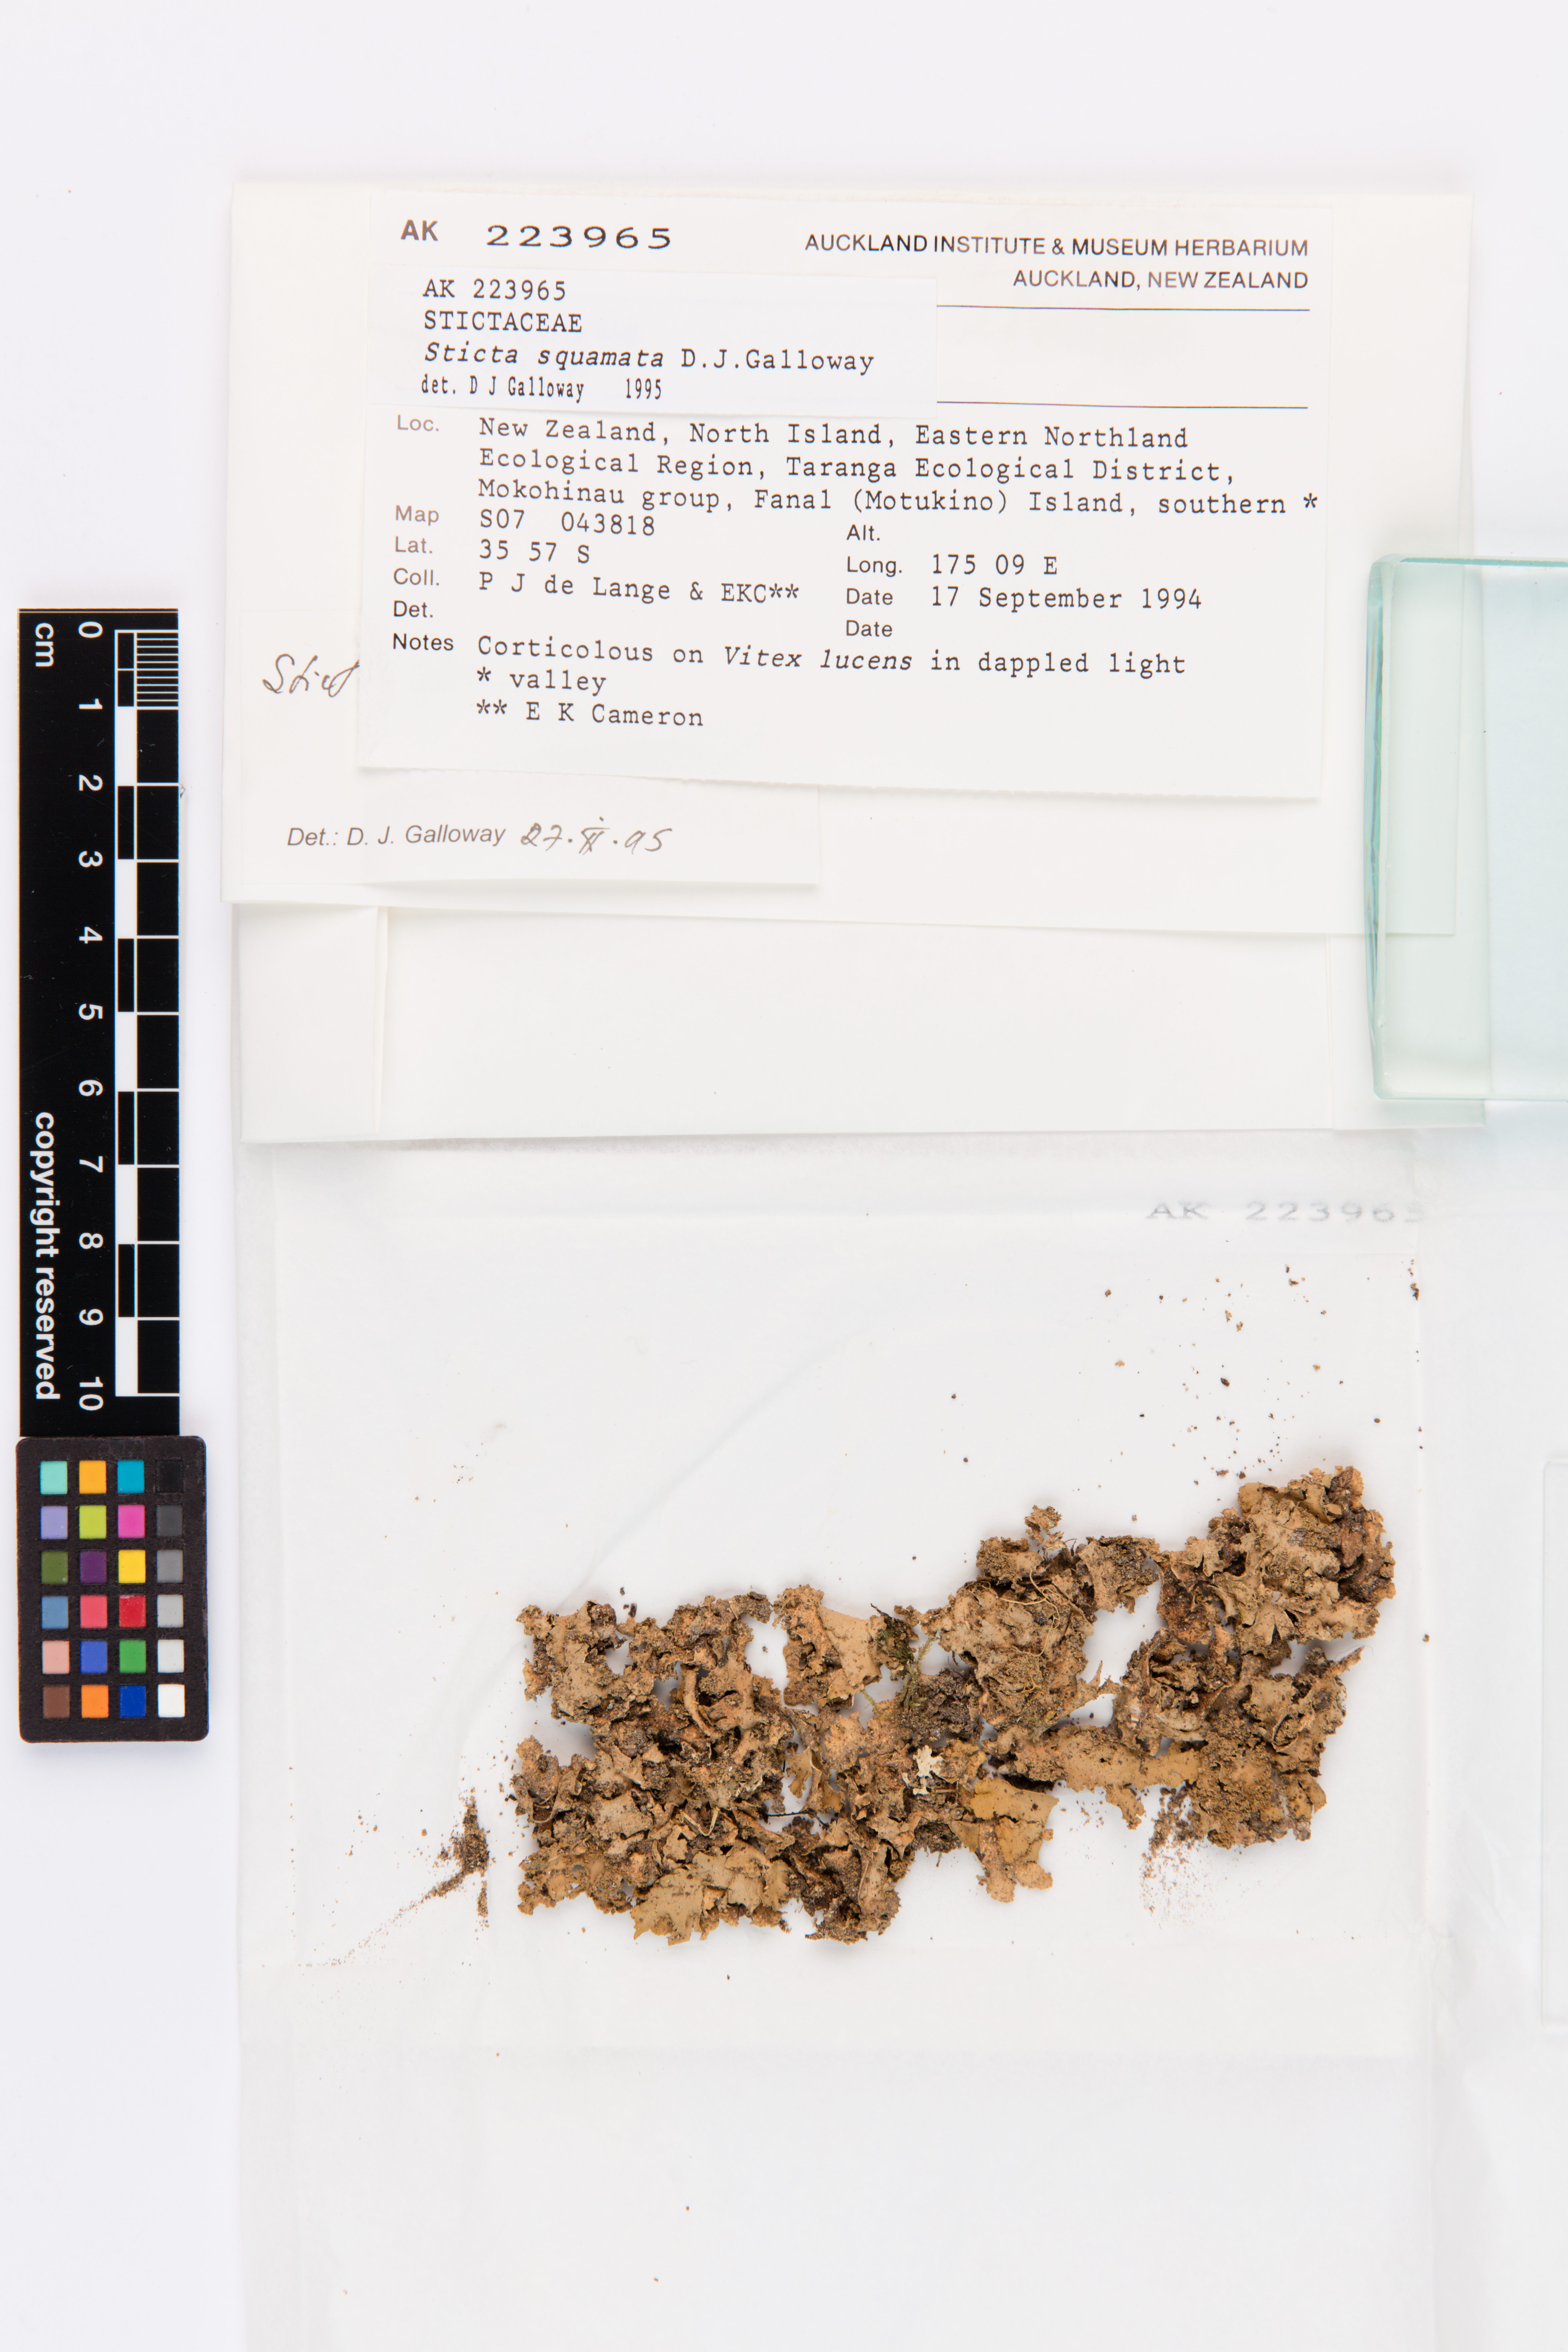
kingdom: Fungi
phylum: Ascomycota
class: Lecanoromycetes
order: Peltigerales
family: Lobariaceae
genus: Sticta
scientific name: Sticta squamata
